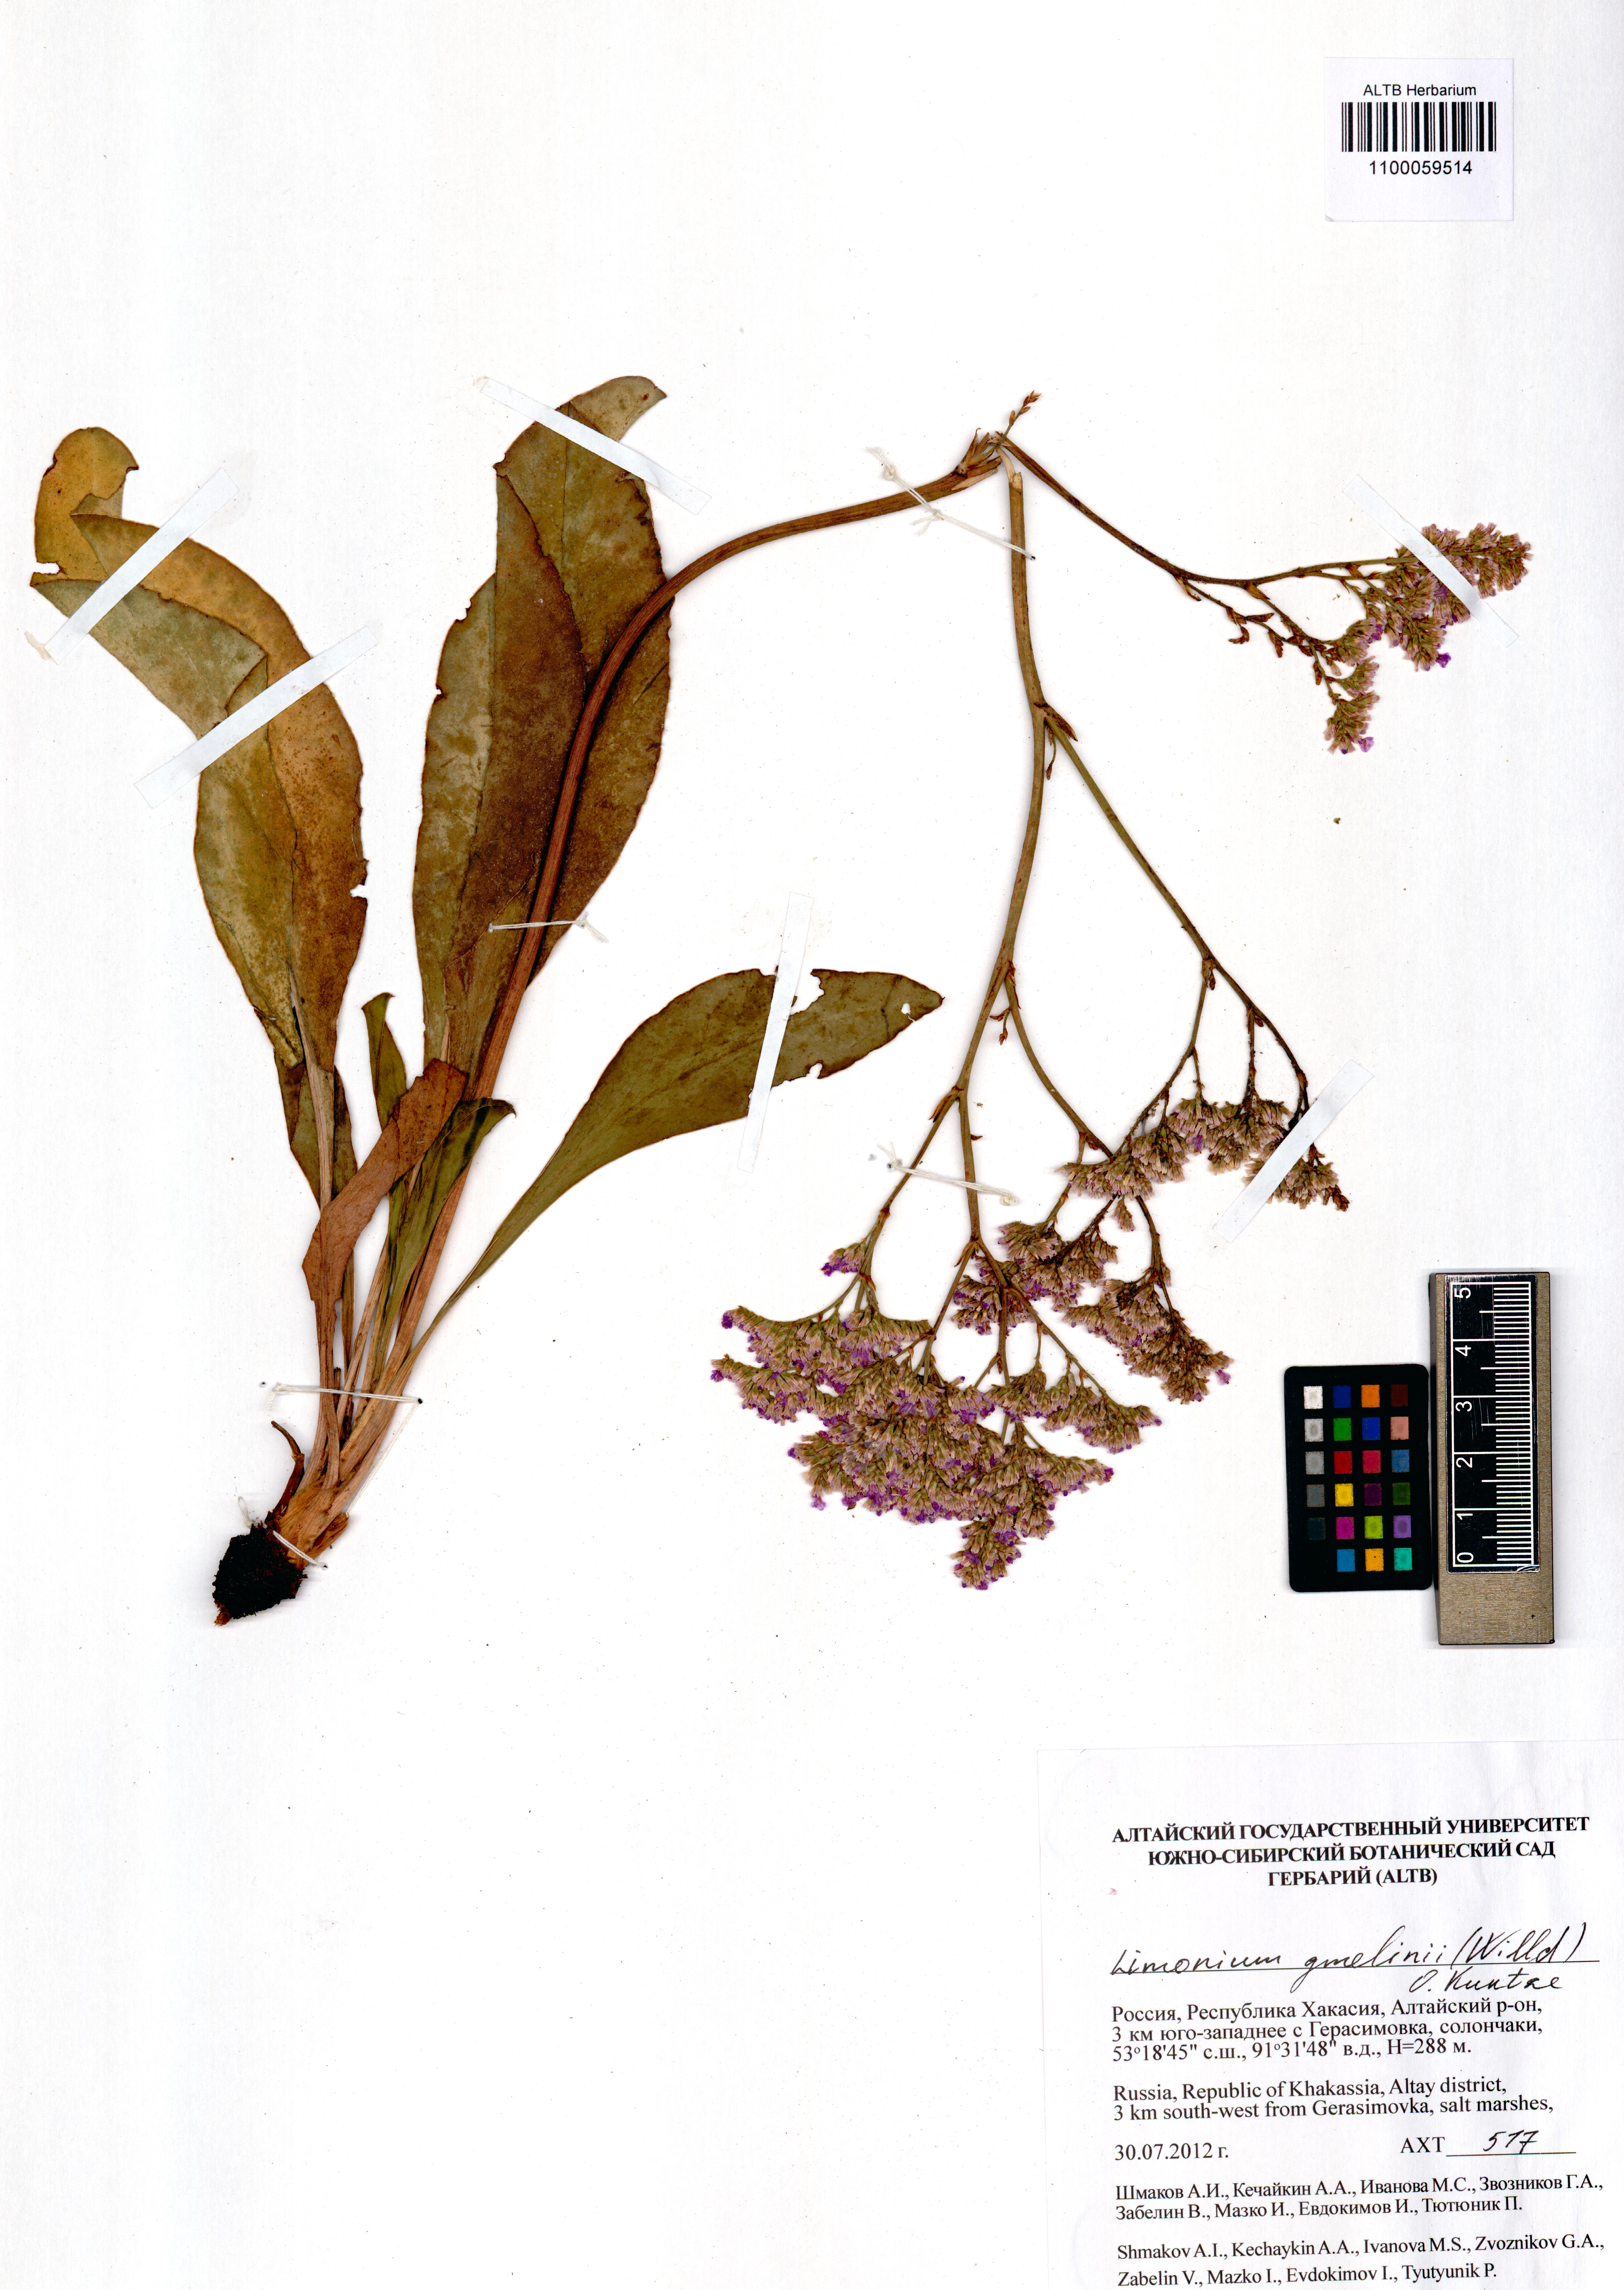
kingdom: Plantae
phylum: Tracheophyta
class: Magnoliopsida
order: Caryophyllales
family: Plumbaginaceae
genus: Limonium
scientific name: Limonium gmelini
